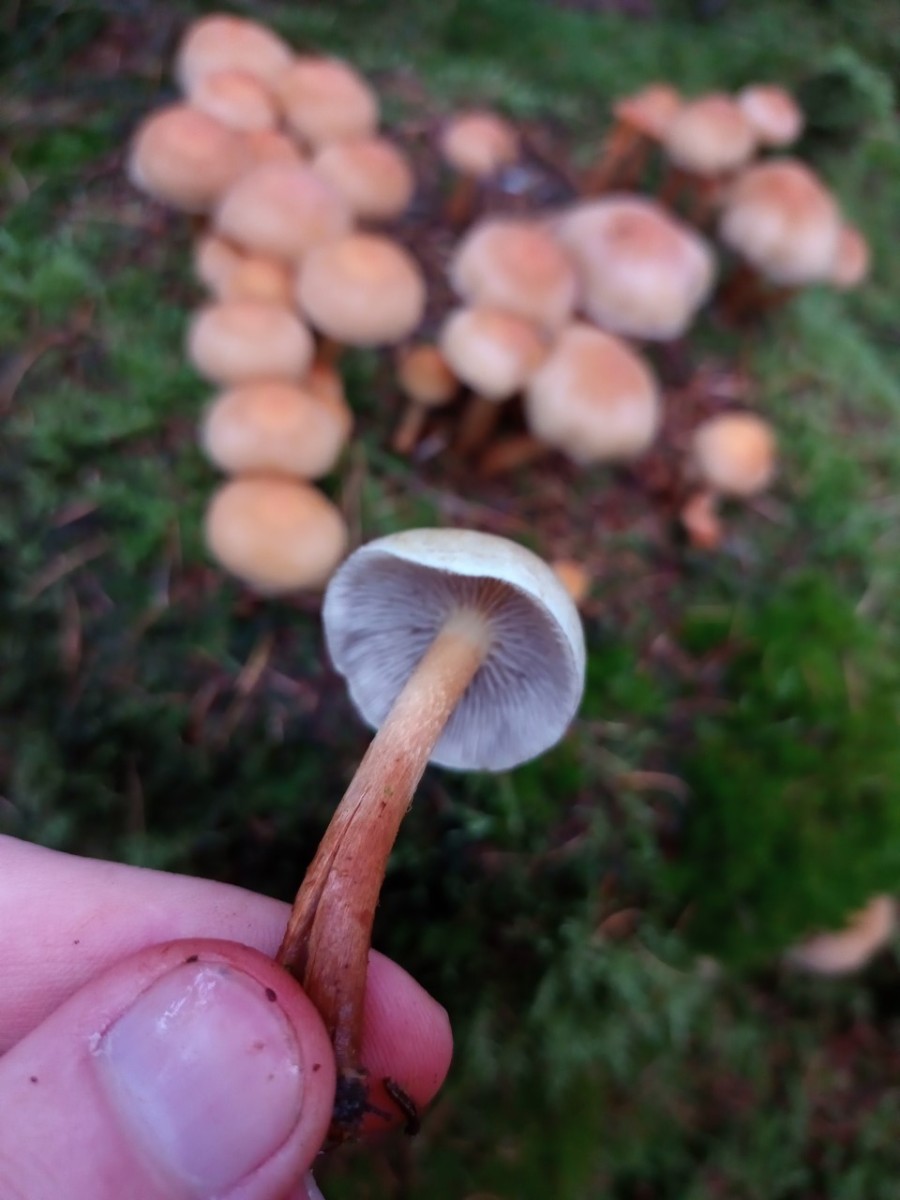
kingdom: Fungi
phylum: Basidiomycota
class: Agaricomycetes
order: Agaricales
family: Strophariaceae
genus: Hypholoma
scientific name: Hypholoma capnoides
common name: gran-svovlhat
